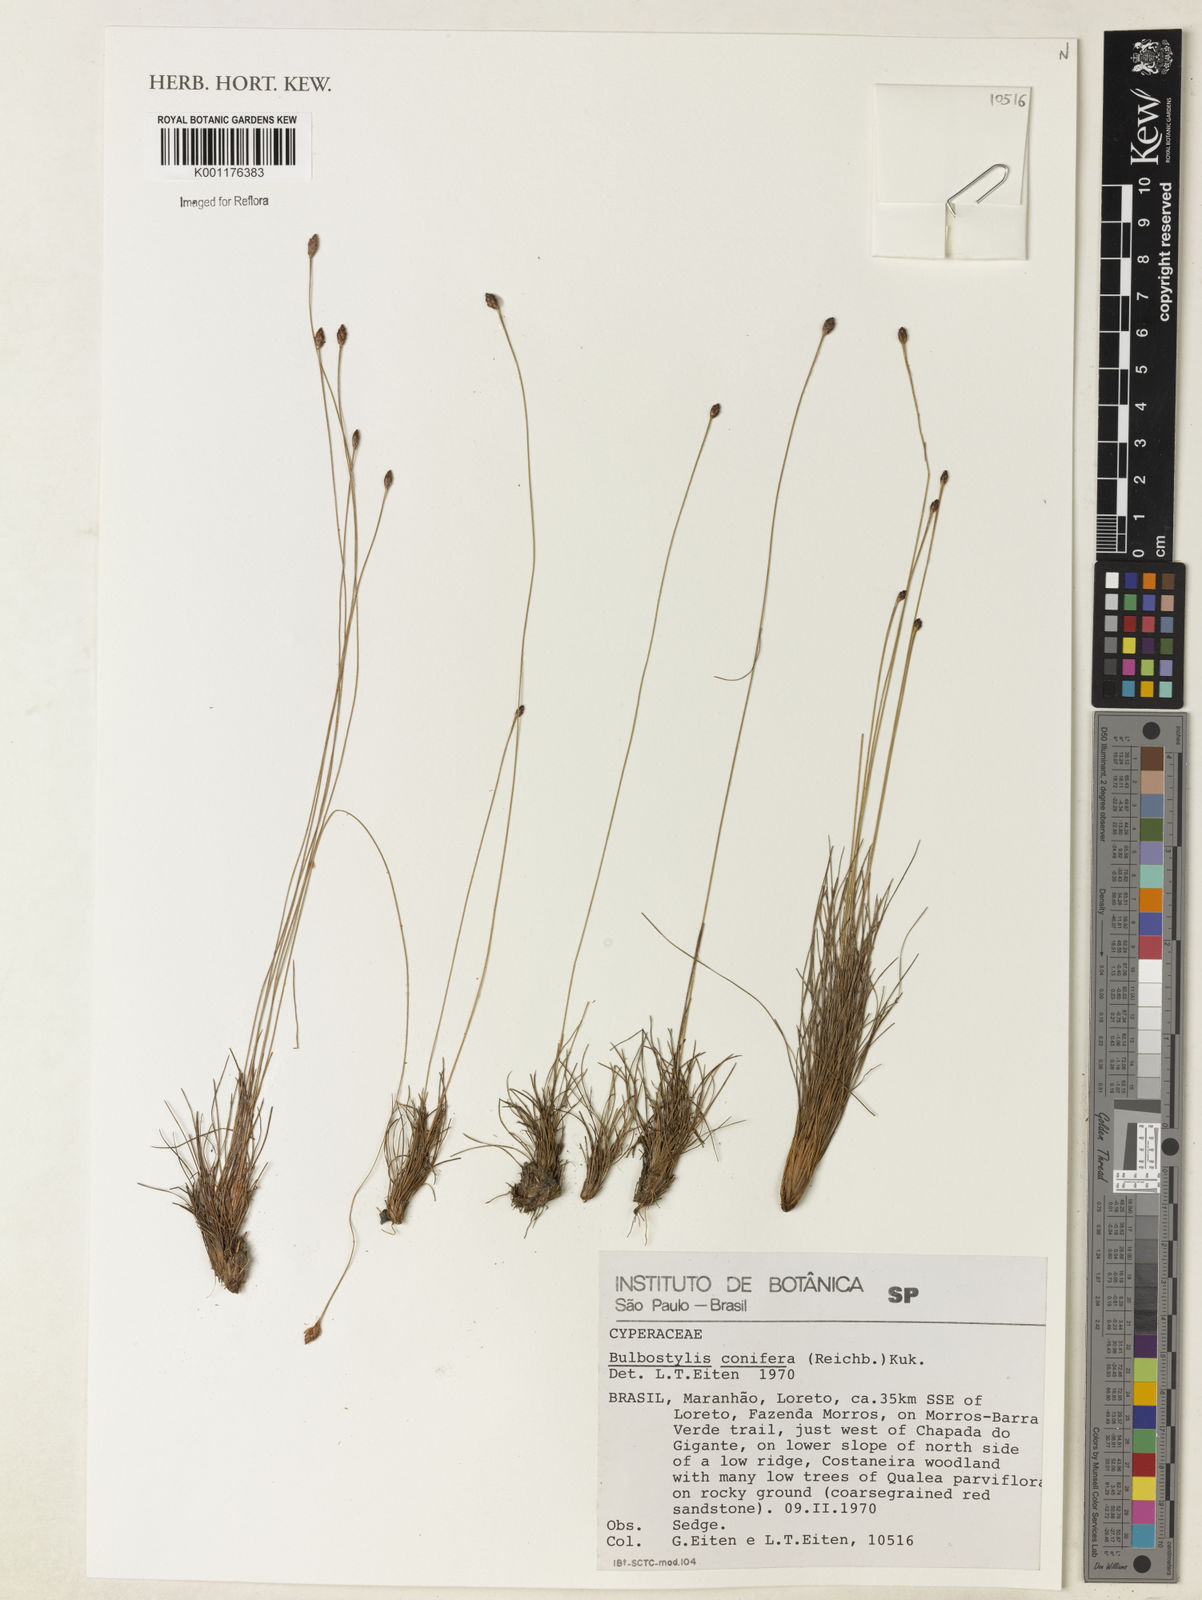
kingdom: Plantae
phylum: Tracheophyta
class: Liliopsida
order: Poales
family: Cyperaceae
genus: Bulbostylis
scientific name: Bulbostylis conifera
